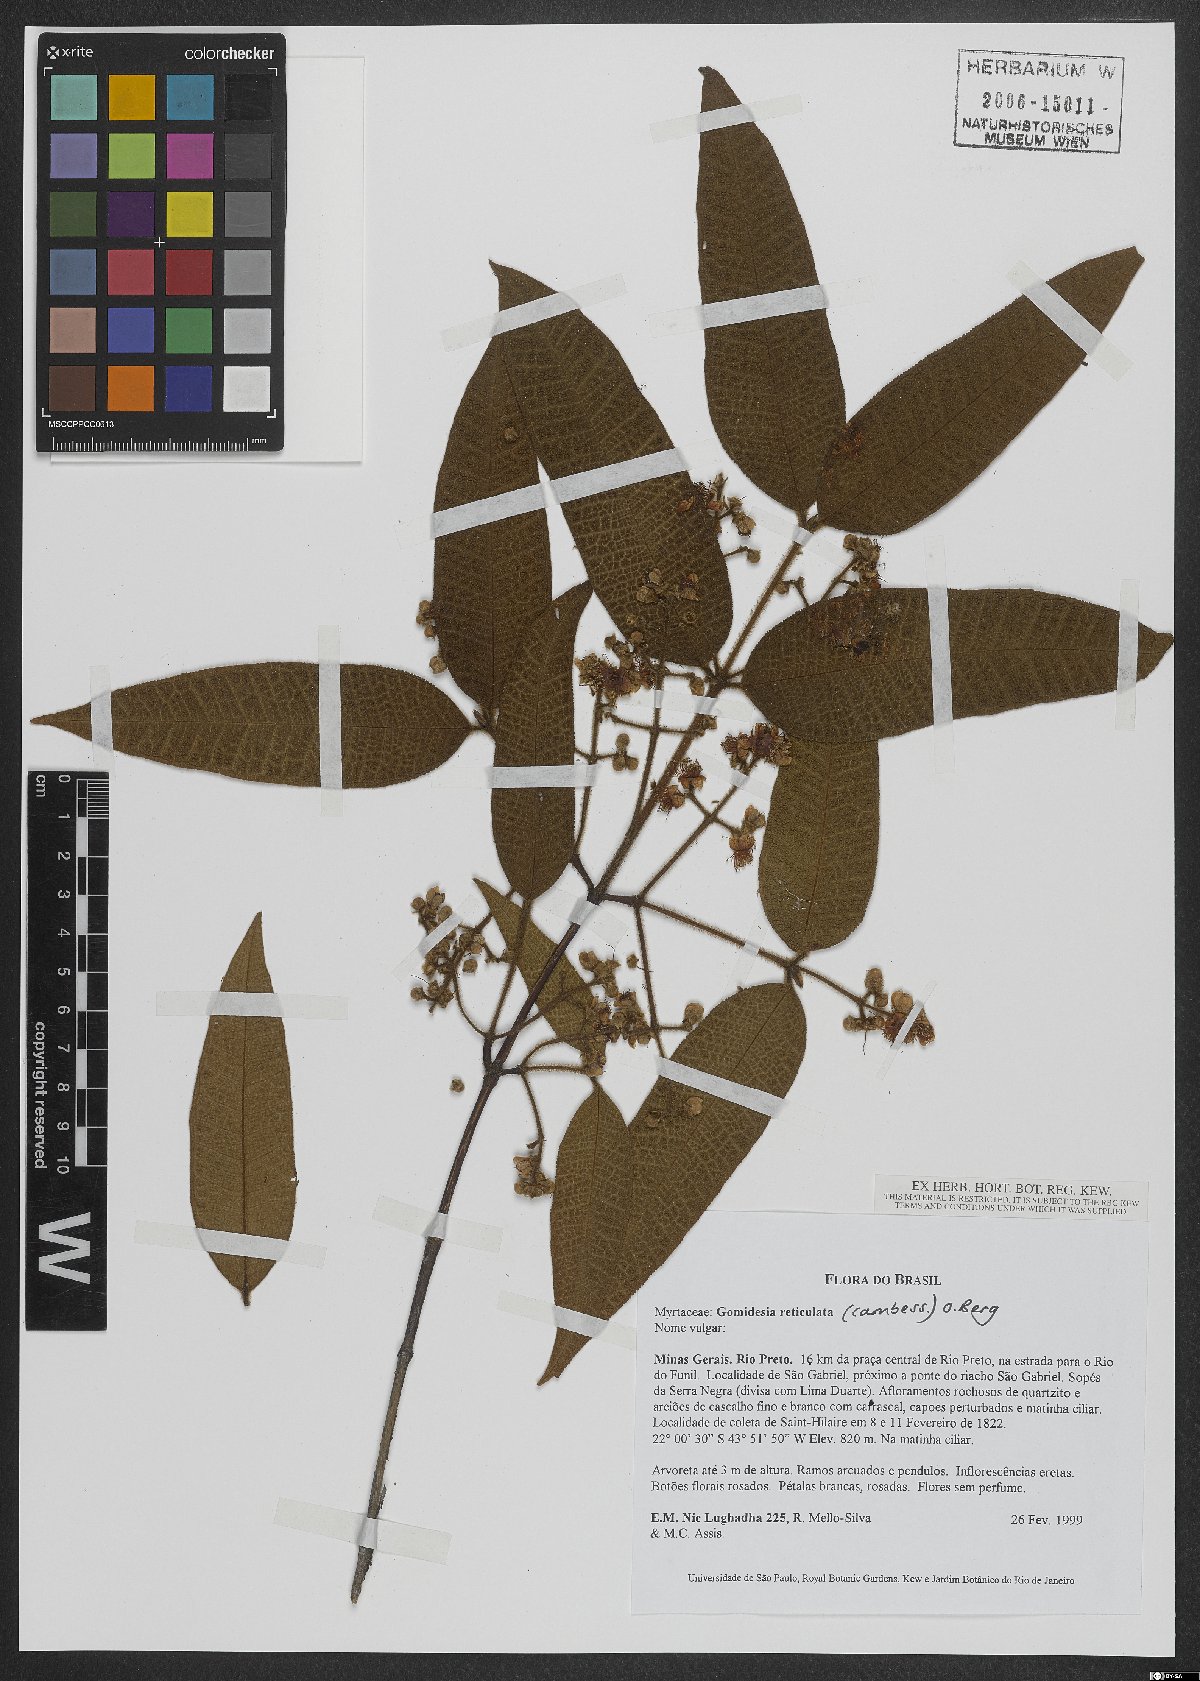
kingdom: Plantae
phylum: Tracheophyta
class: Magnoliopsida
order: Myrtales
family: Myrtaceae
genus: Myrcia
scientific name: Myrcia reticulata
